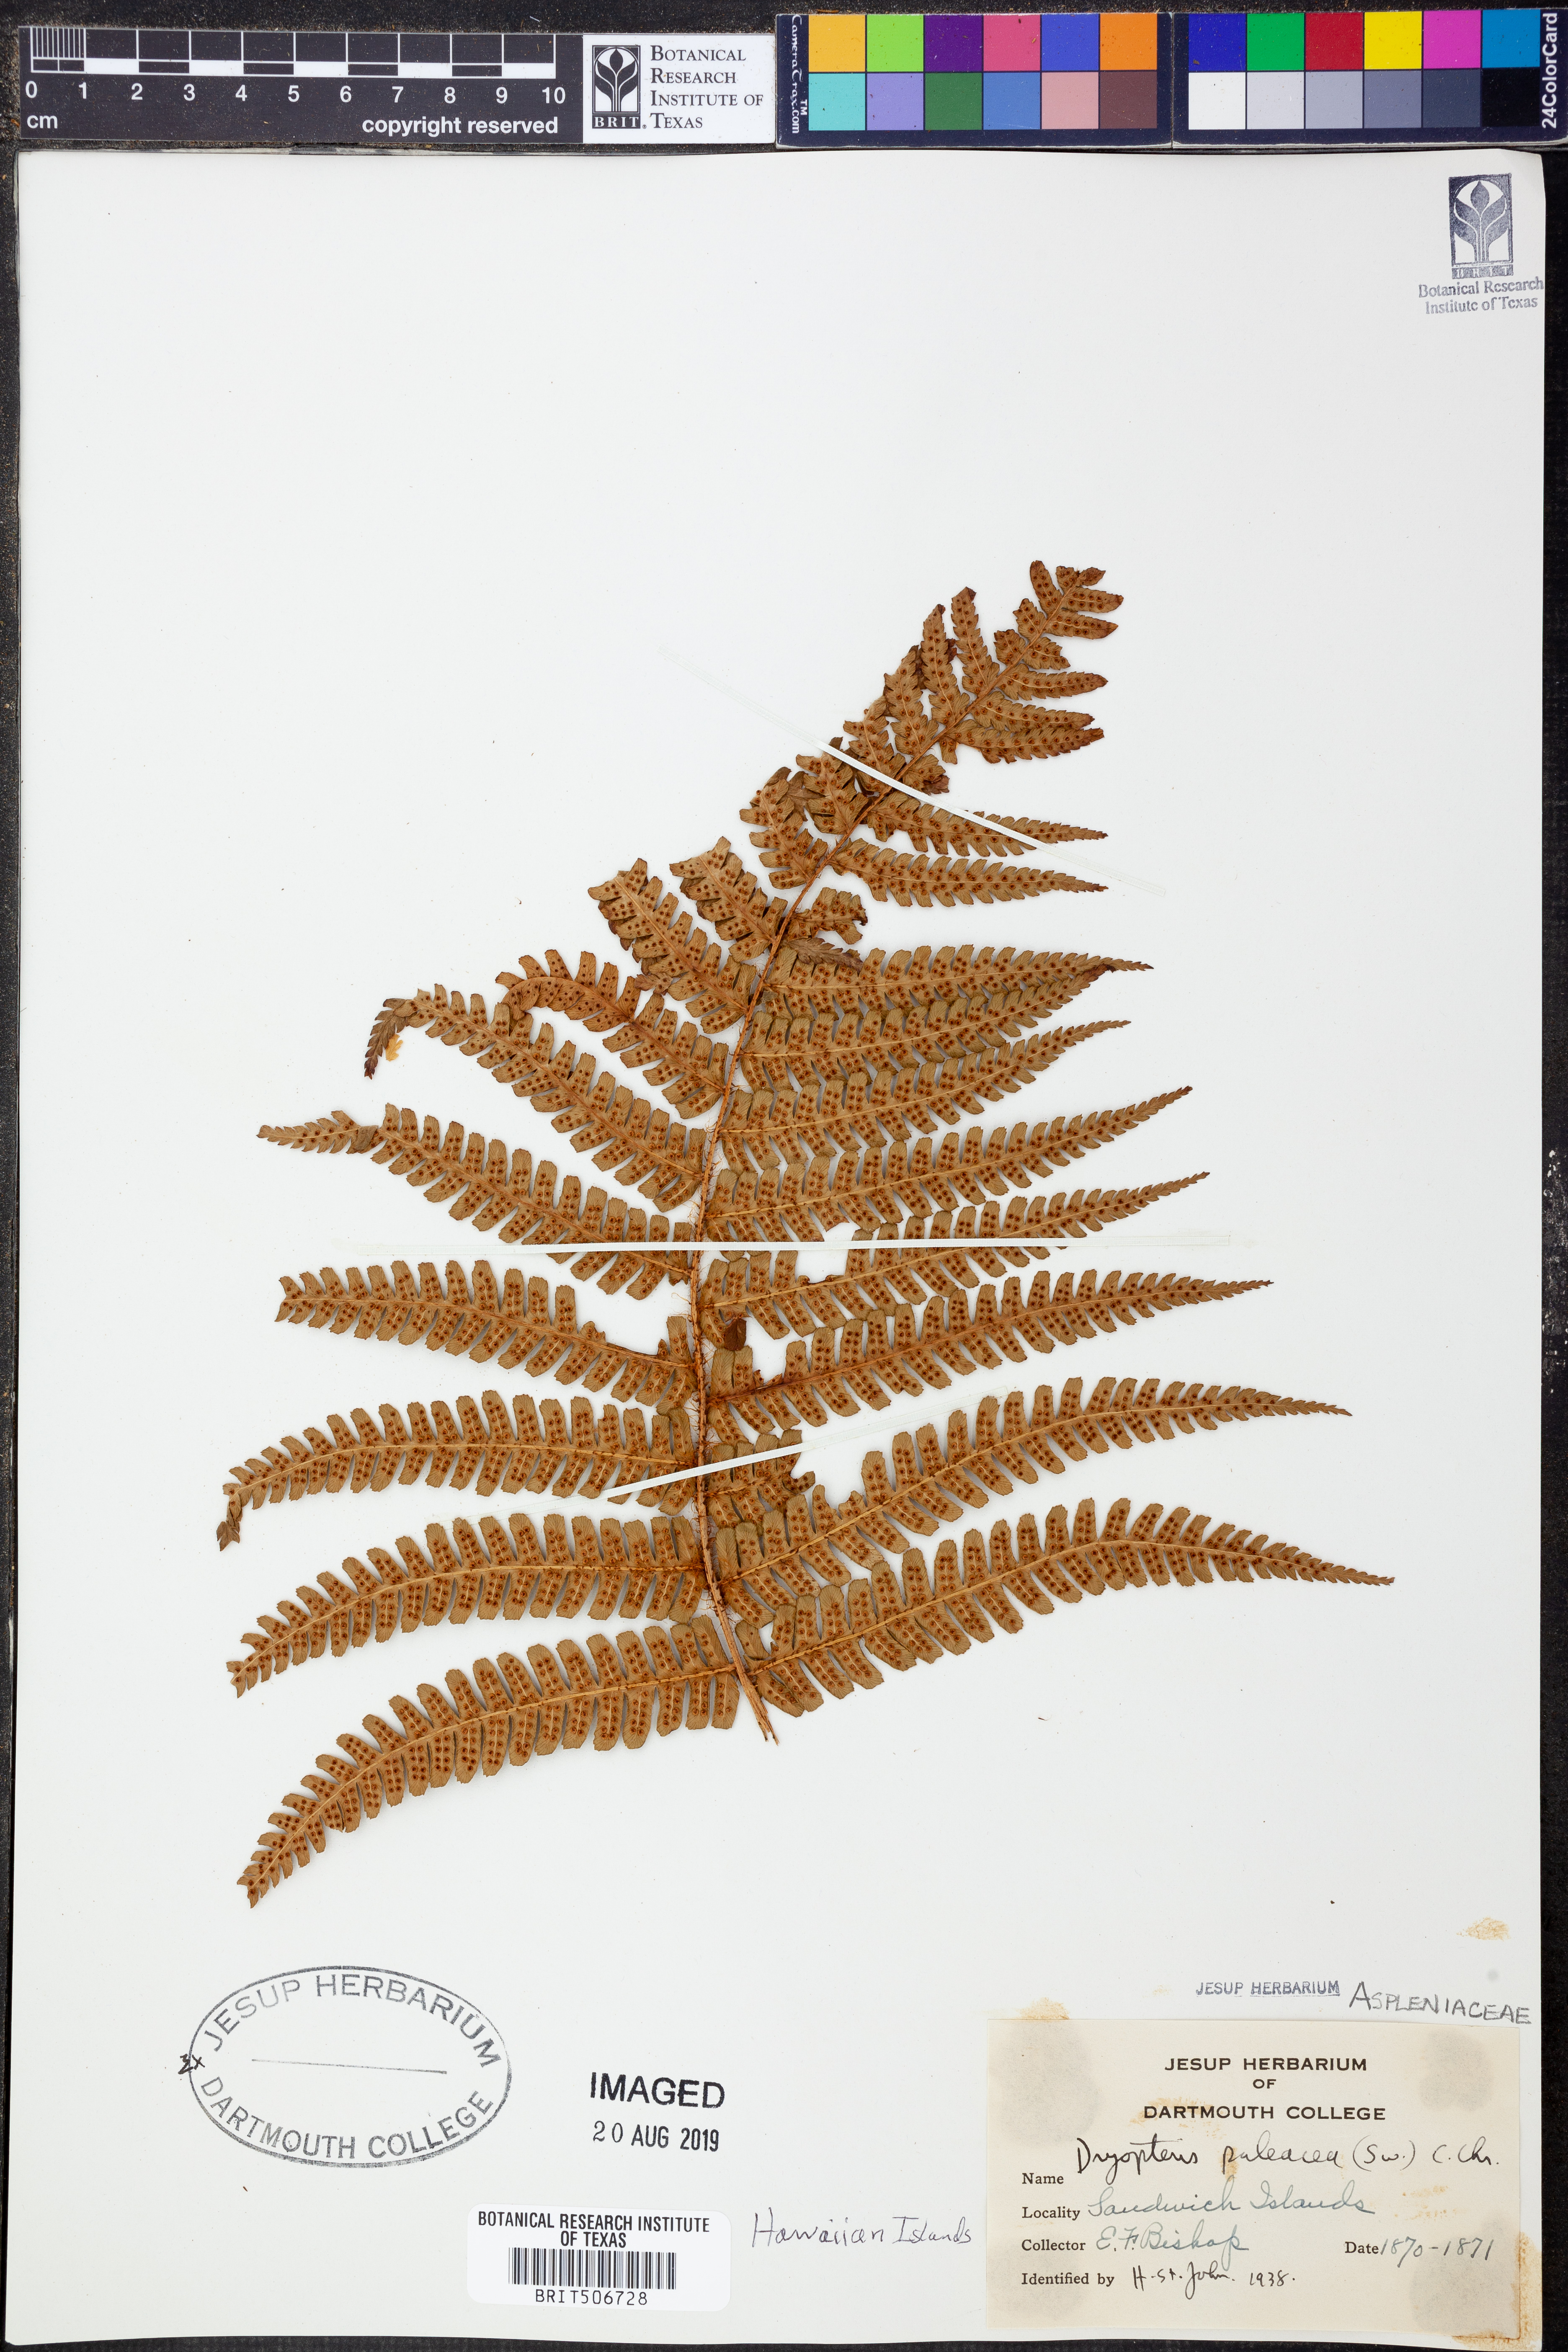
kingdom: Plantae
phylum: Tracheophyta
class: Polypodiopsida
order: Polypodiales
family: Dryopteridaceae
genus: Dryopteris
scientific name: Dryopteris wallichiana
